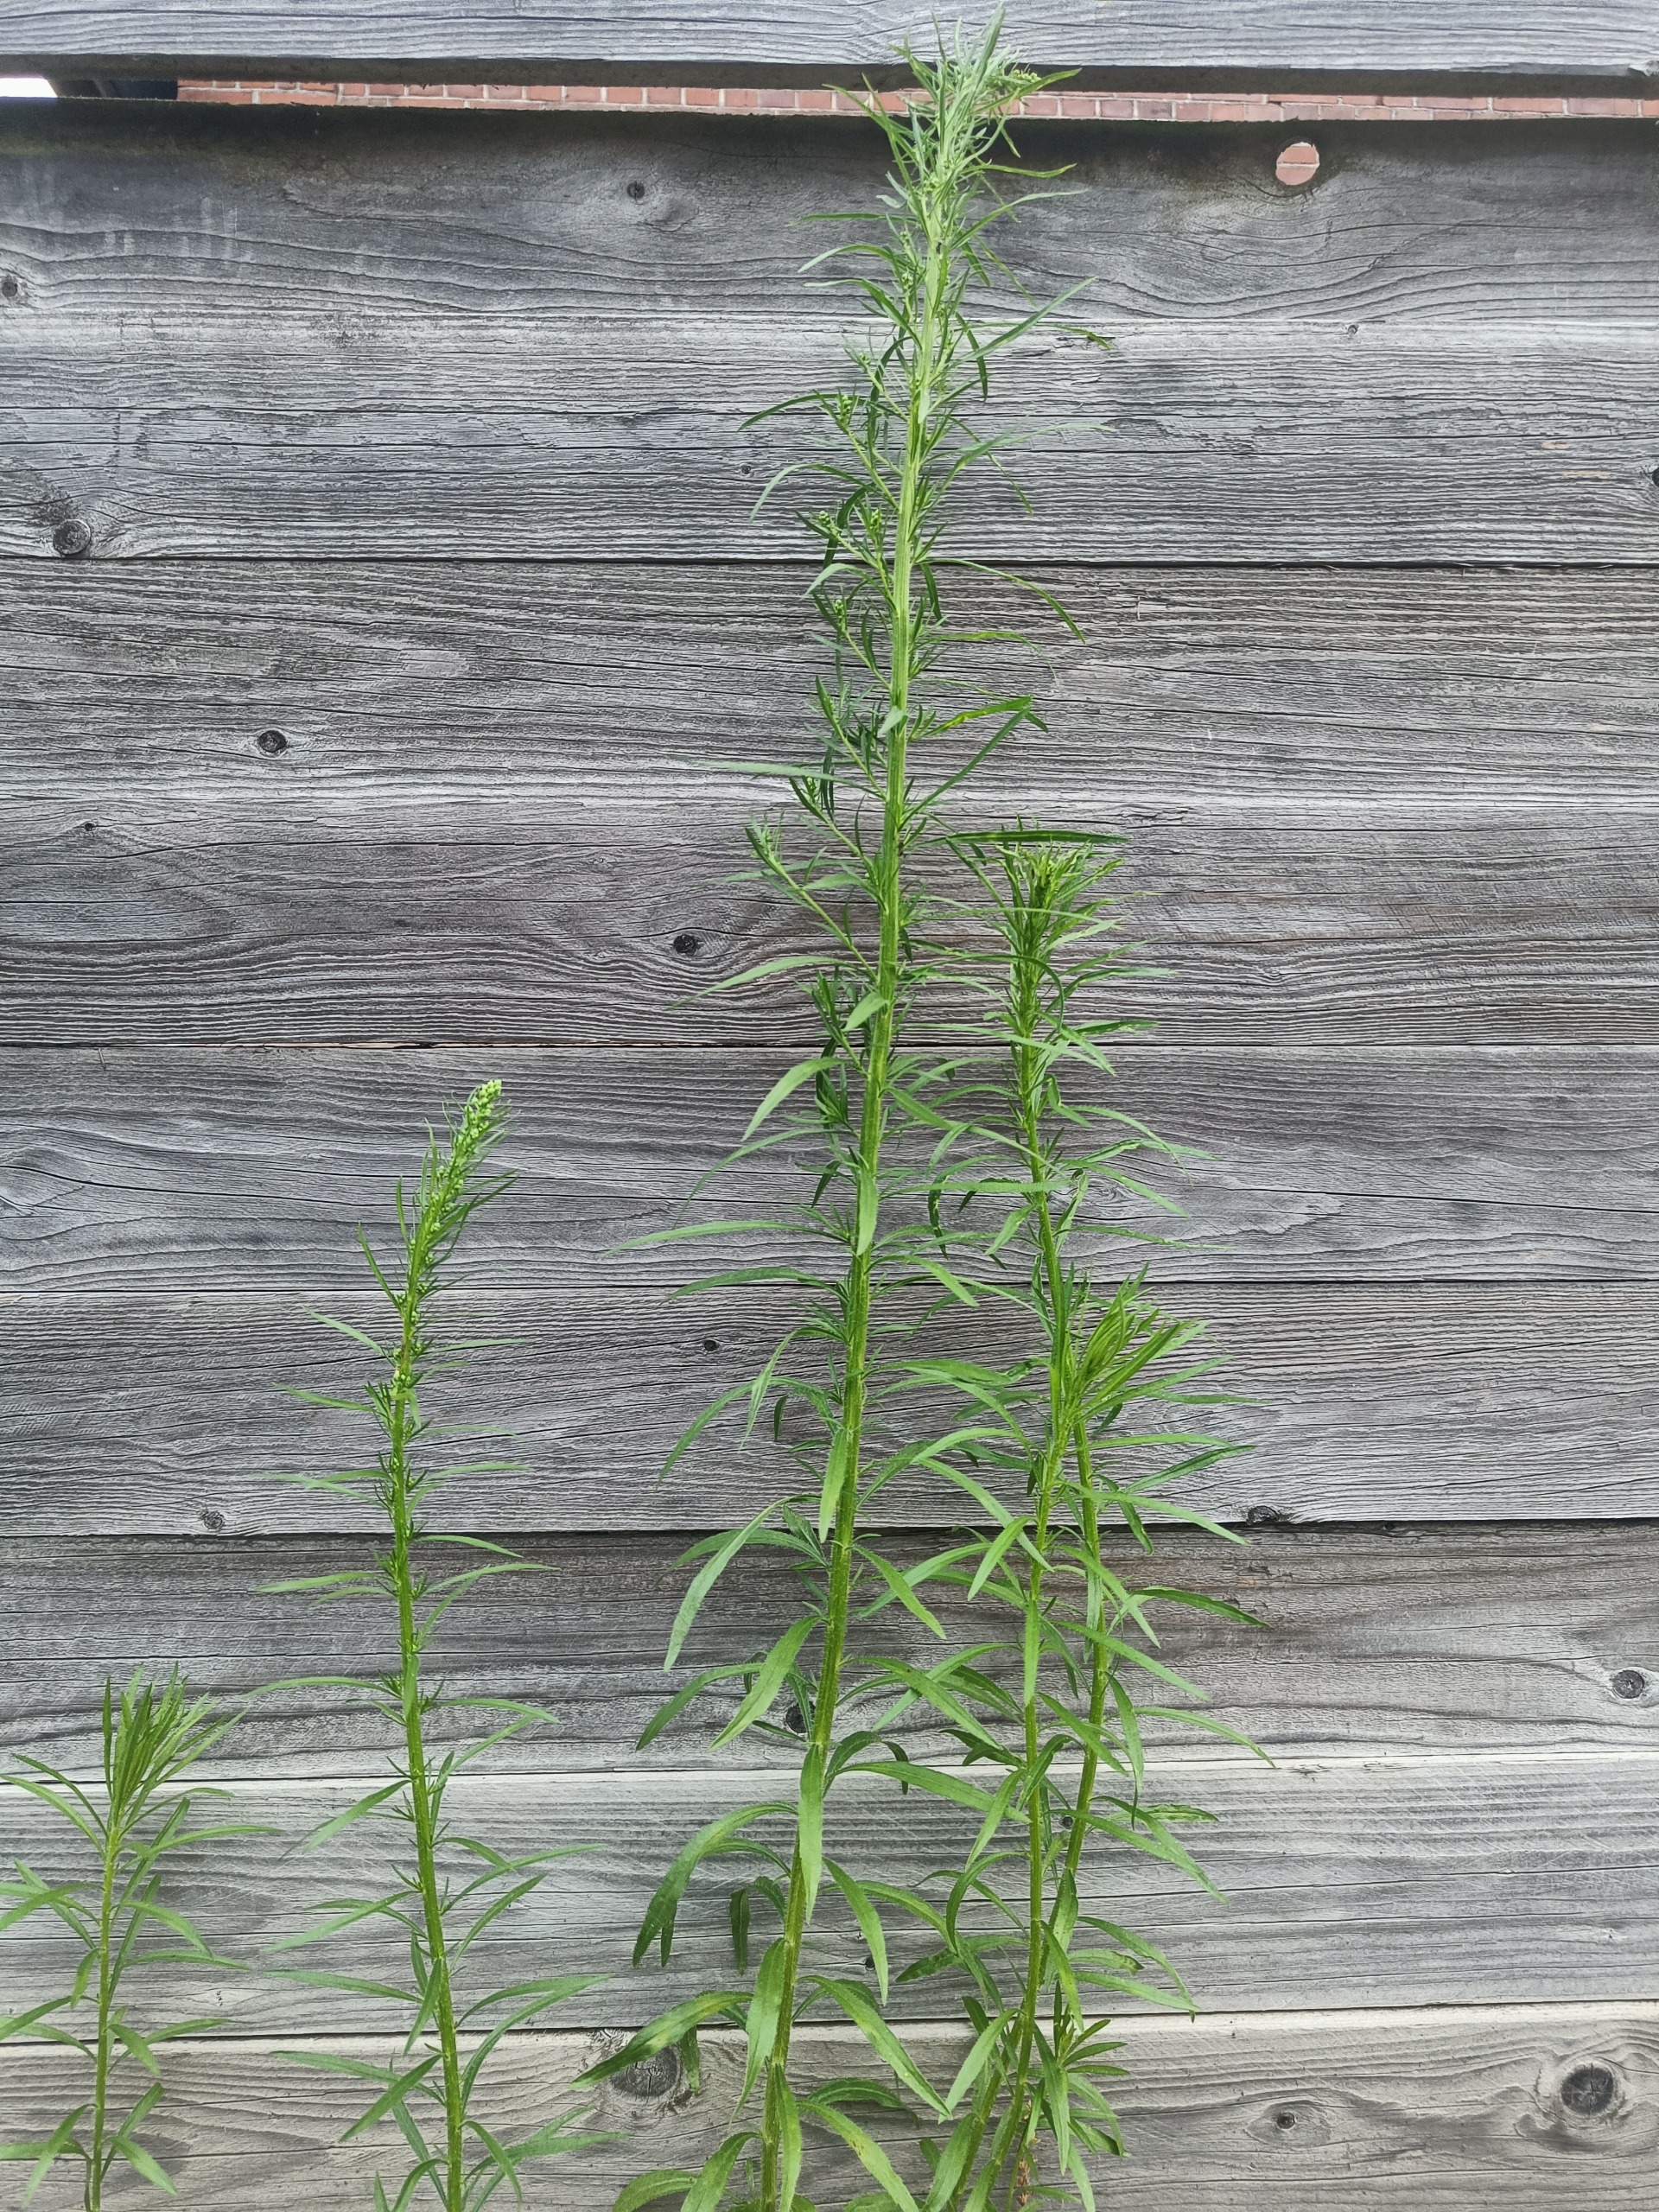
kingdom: Plantae
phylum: Tracheophyta
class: Magnoliopsida
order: Asterales
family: Asteraceae
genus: Erigeron
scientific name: Erigeron canadensis
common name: Kanadisk bakkestjerne
